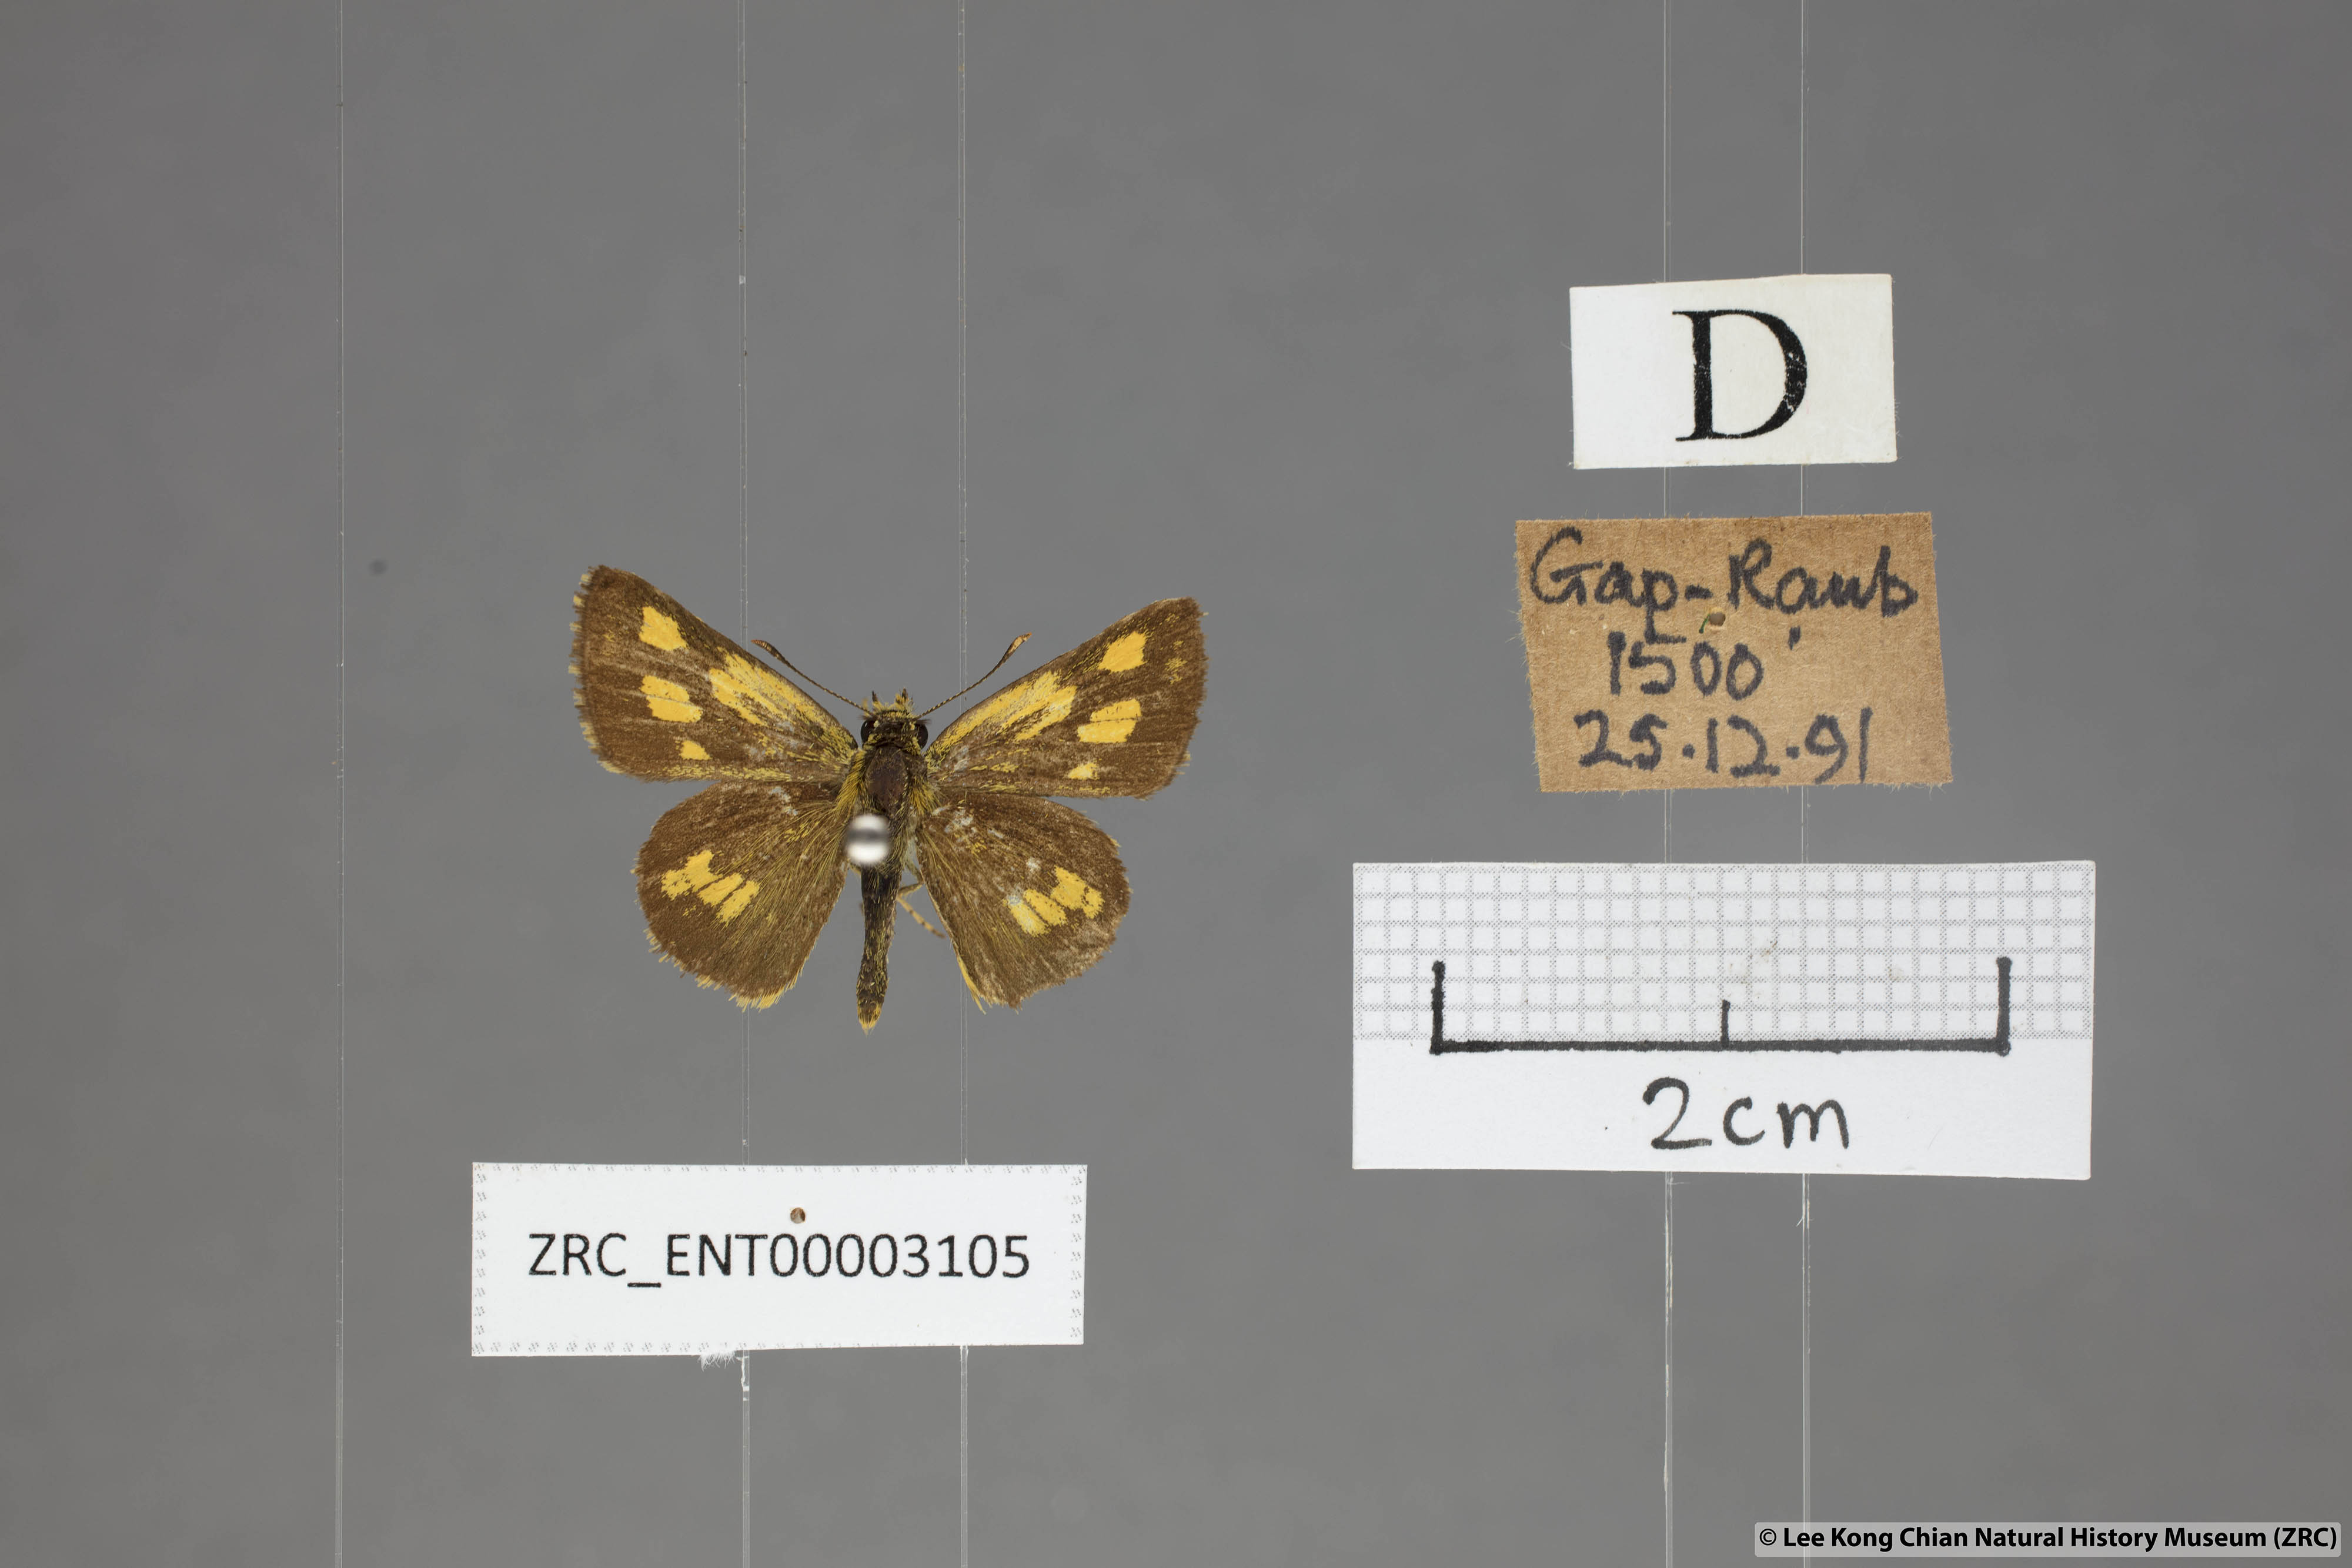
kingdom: Animalia
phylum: Arthropoda
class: Insecta
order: Lepidoptera
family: Hesperiidae
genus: Ampittia
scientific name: Ampittia dioscorides
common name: Common bush hopper
